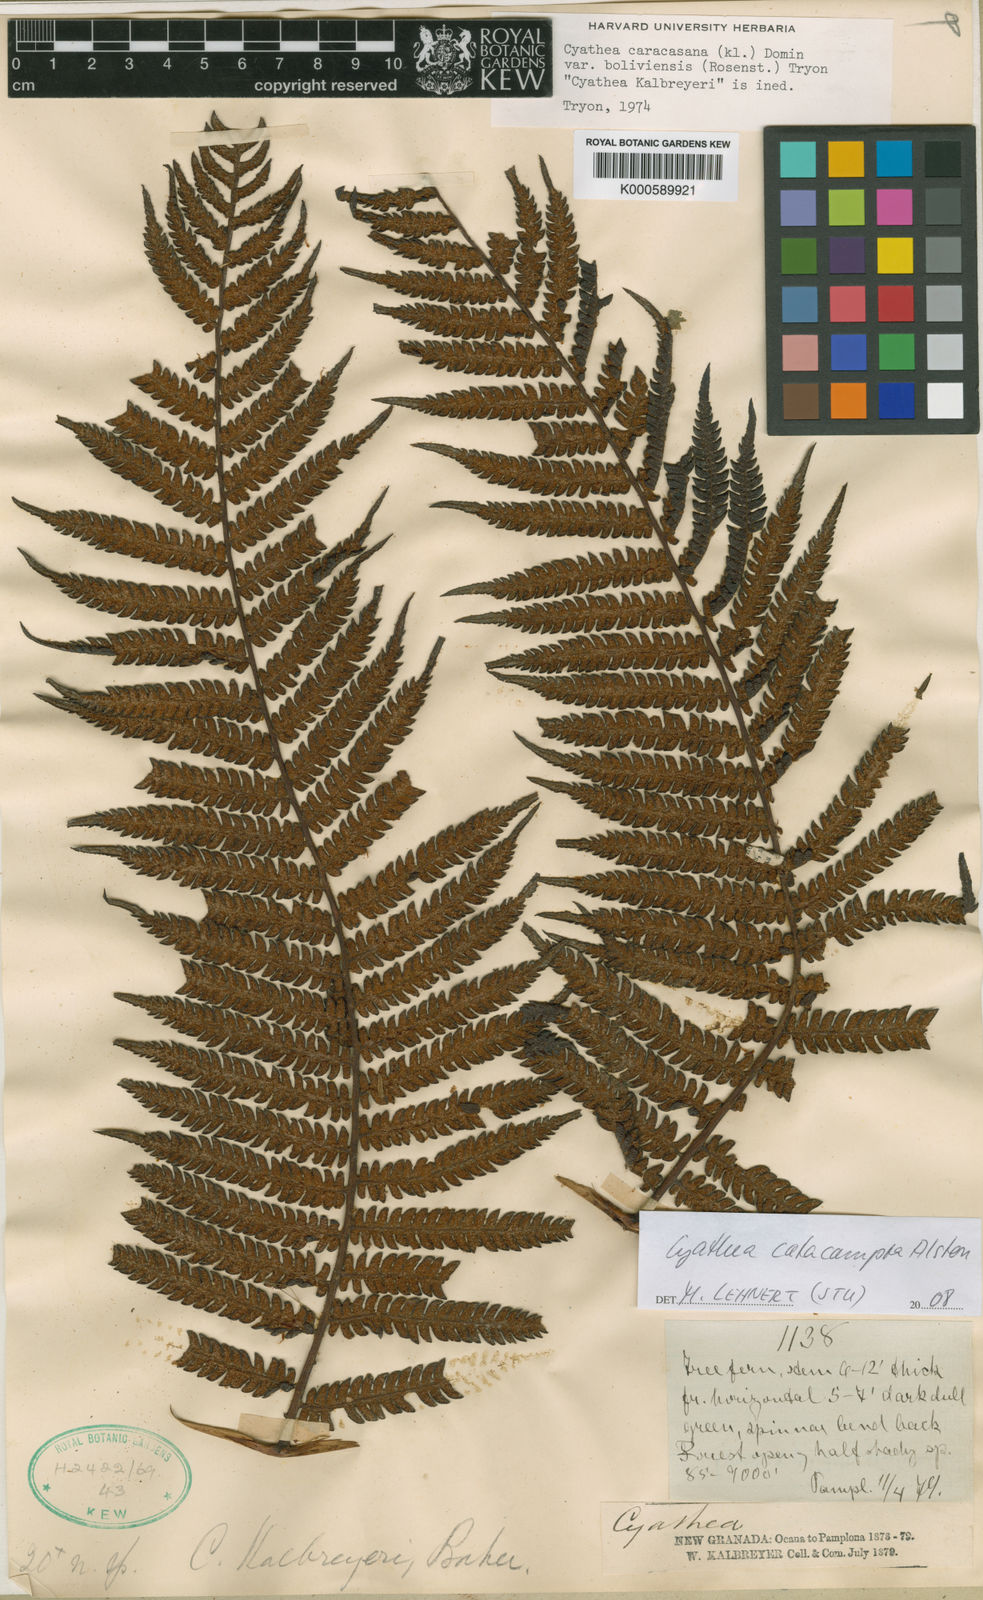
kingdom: Plantae
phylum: Tracheophyta
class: Polypodiopsida
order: Cyatheales
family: Cyatheaceae
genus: Cyathea
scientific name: Cyathea kalbreyeri
